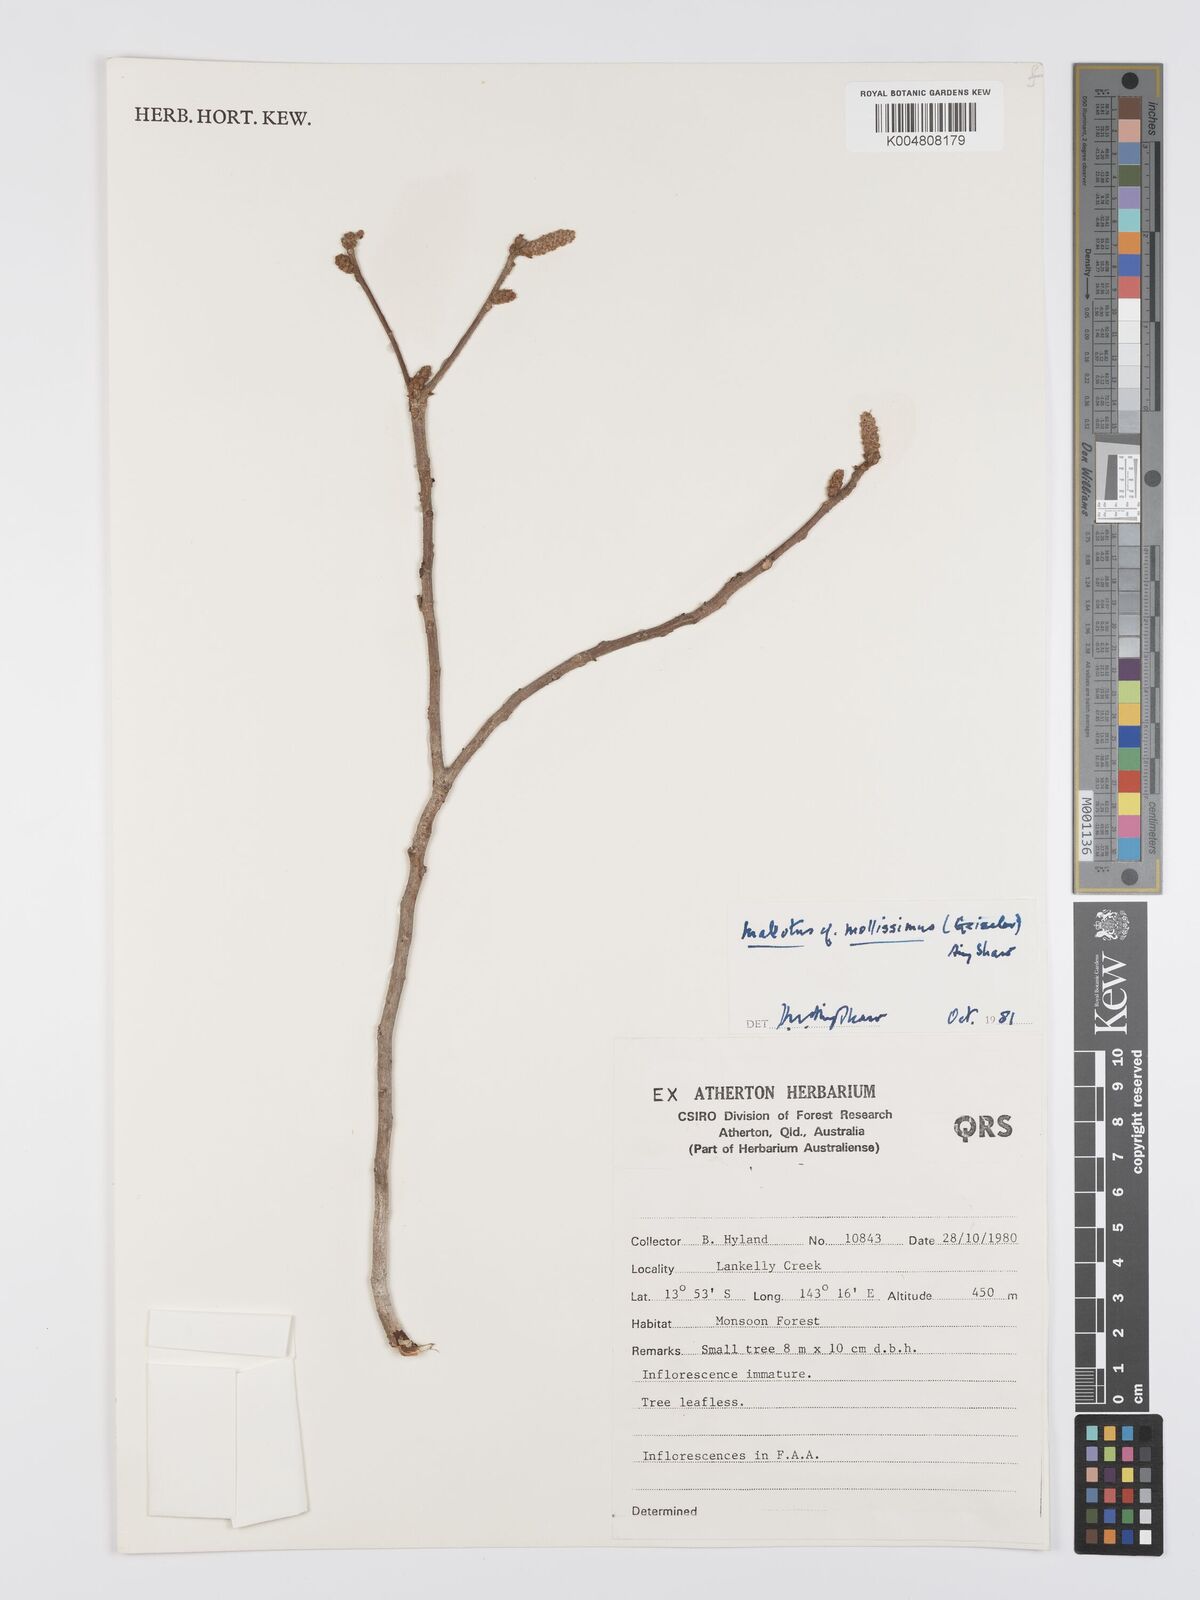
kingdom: Plantae
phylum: Tracheophyta
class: Magnoliopsida
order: Malpighiales
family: Euphorbiaceae
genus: Mallotus
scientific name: Mallotus mollissimus
